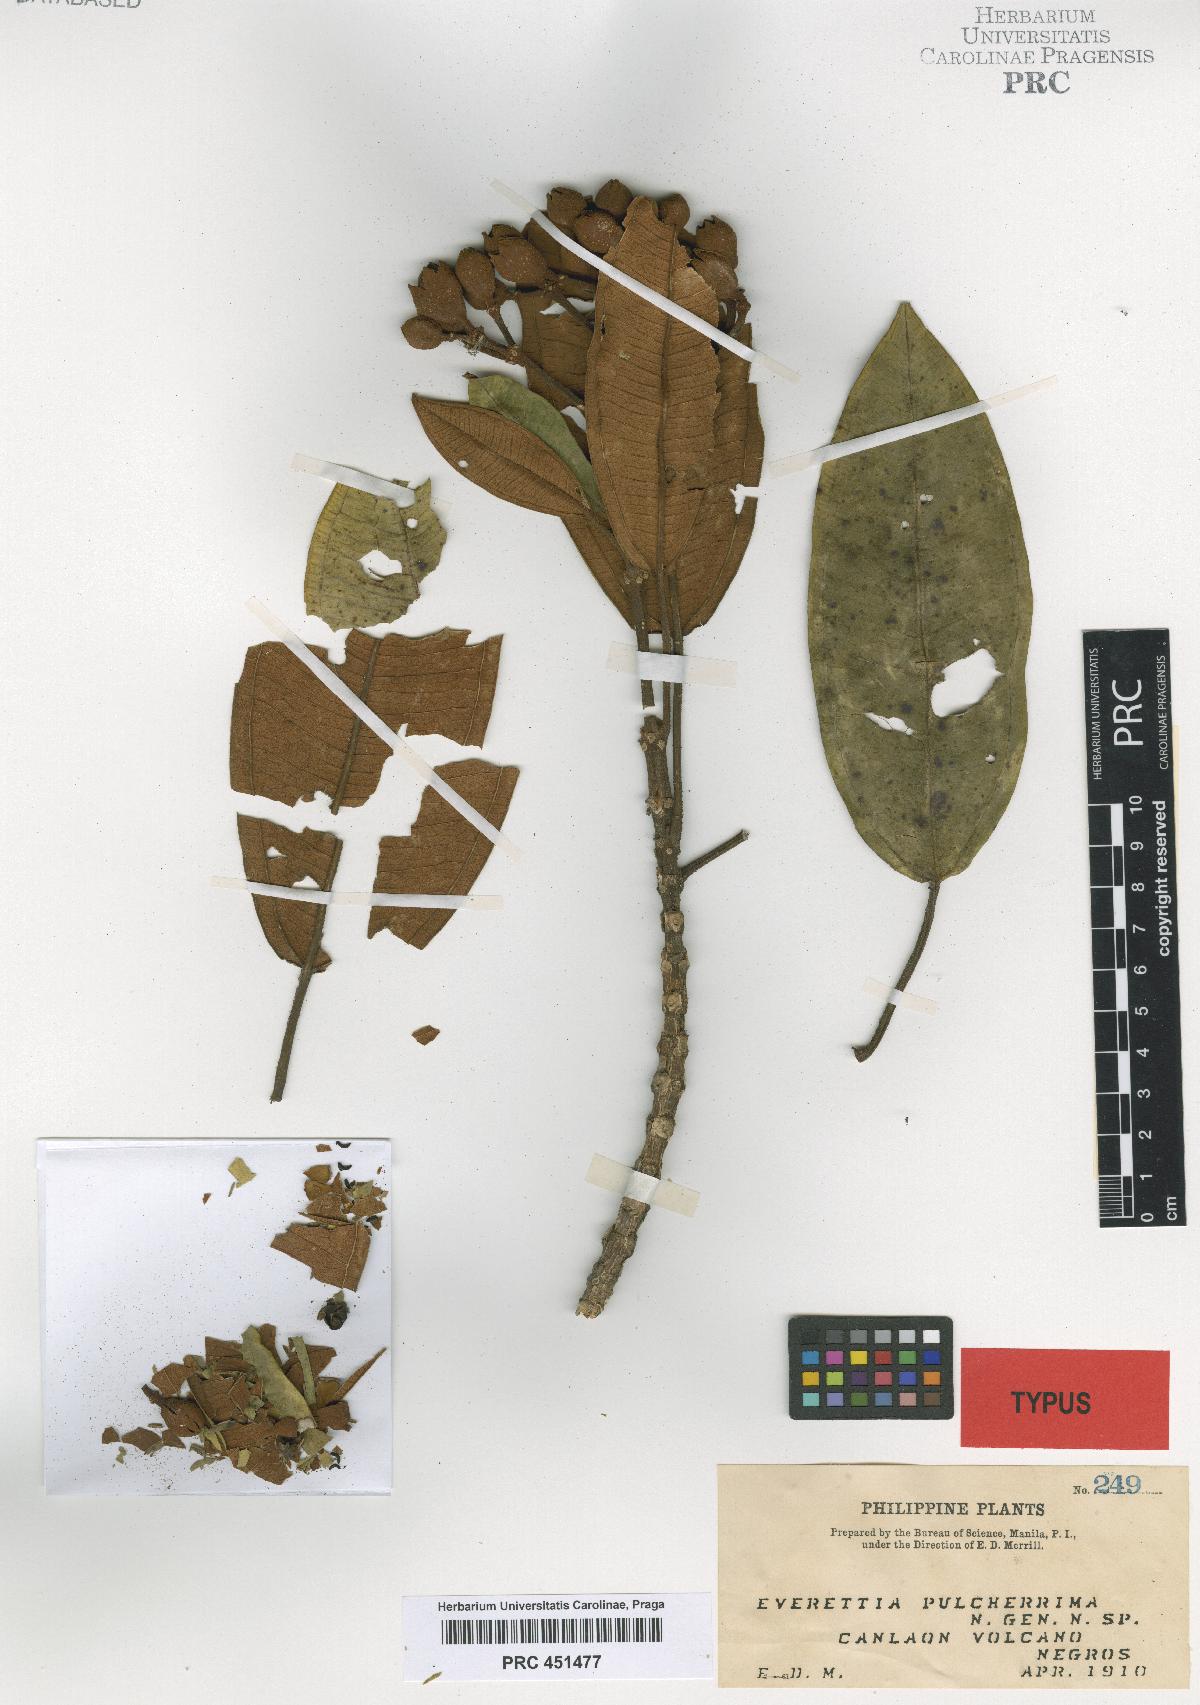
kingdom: Plantae
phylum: Tracheophyta
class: Magnoliopsida
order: Myrtales
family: Melastomataceae
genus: Beccarianthus
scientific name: Beccarianthus pulcherrimus
